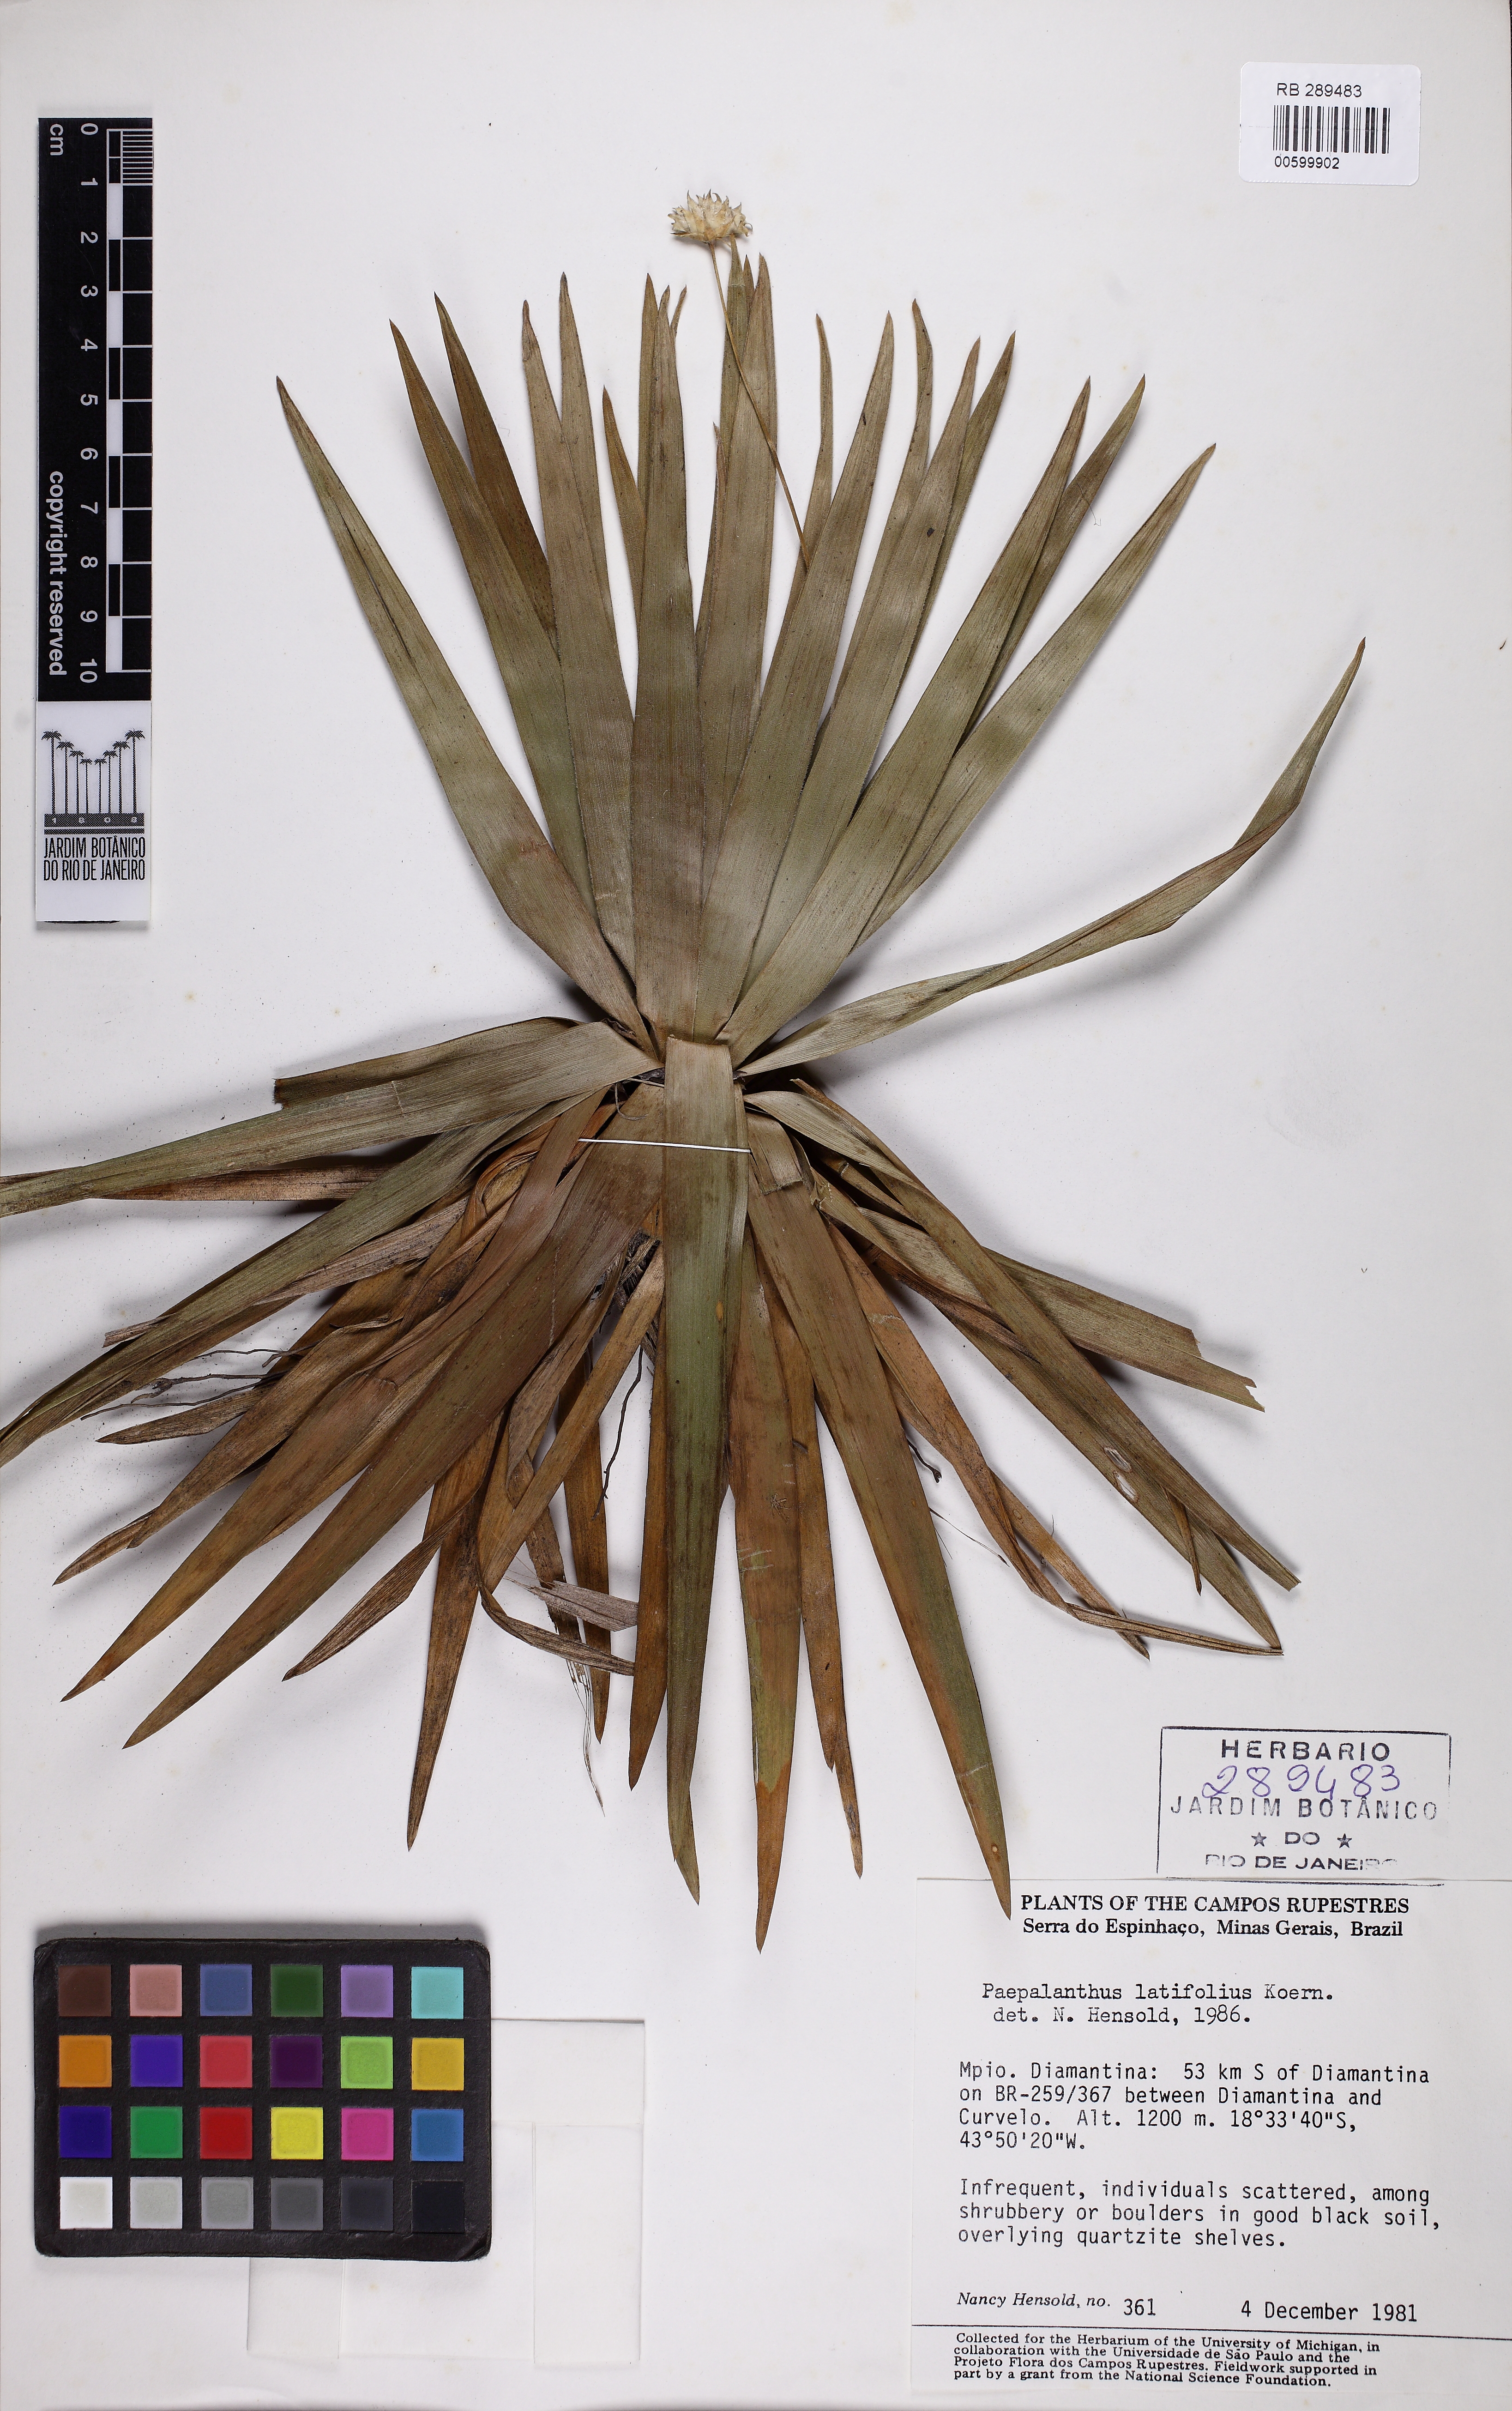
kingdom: Plantae
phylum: Tracheophyta
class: Liliopsida
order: Poales
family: Eriocaulaceae
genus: Paepalanthus
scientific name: Paepalanthus latifolius
